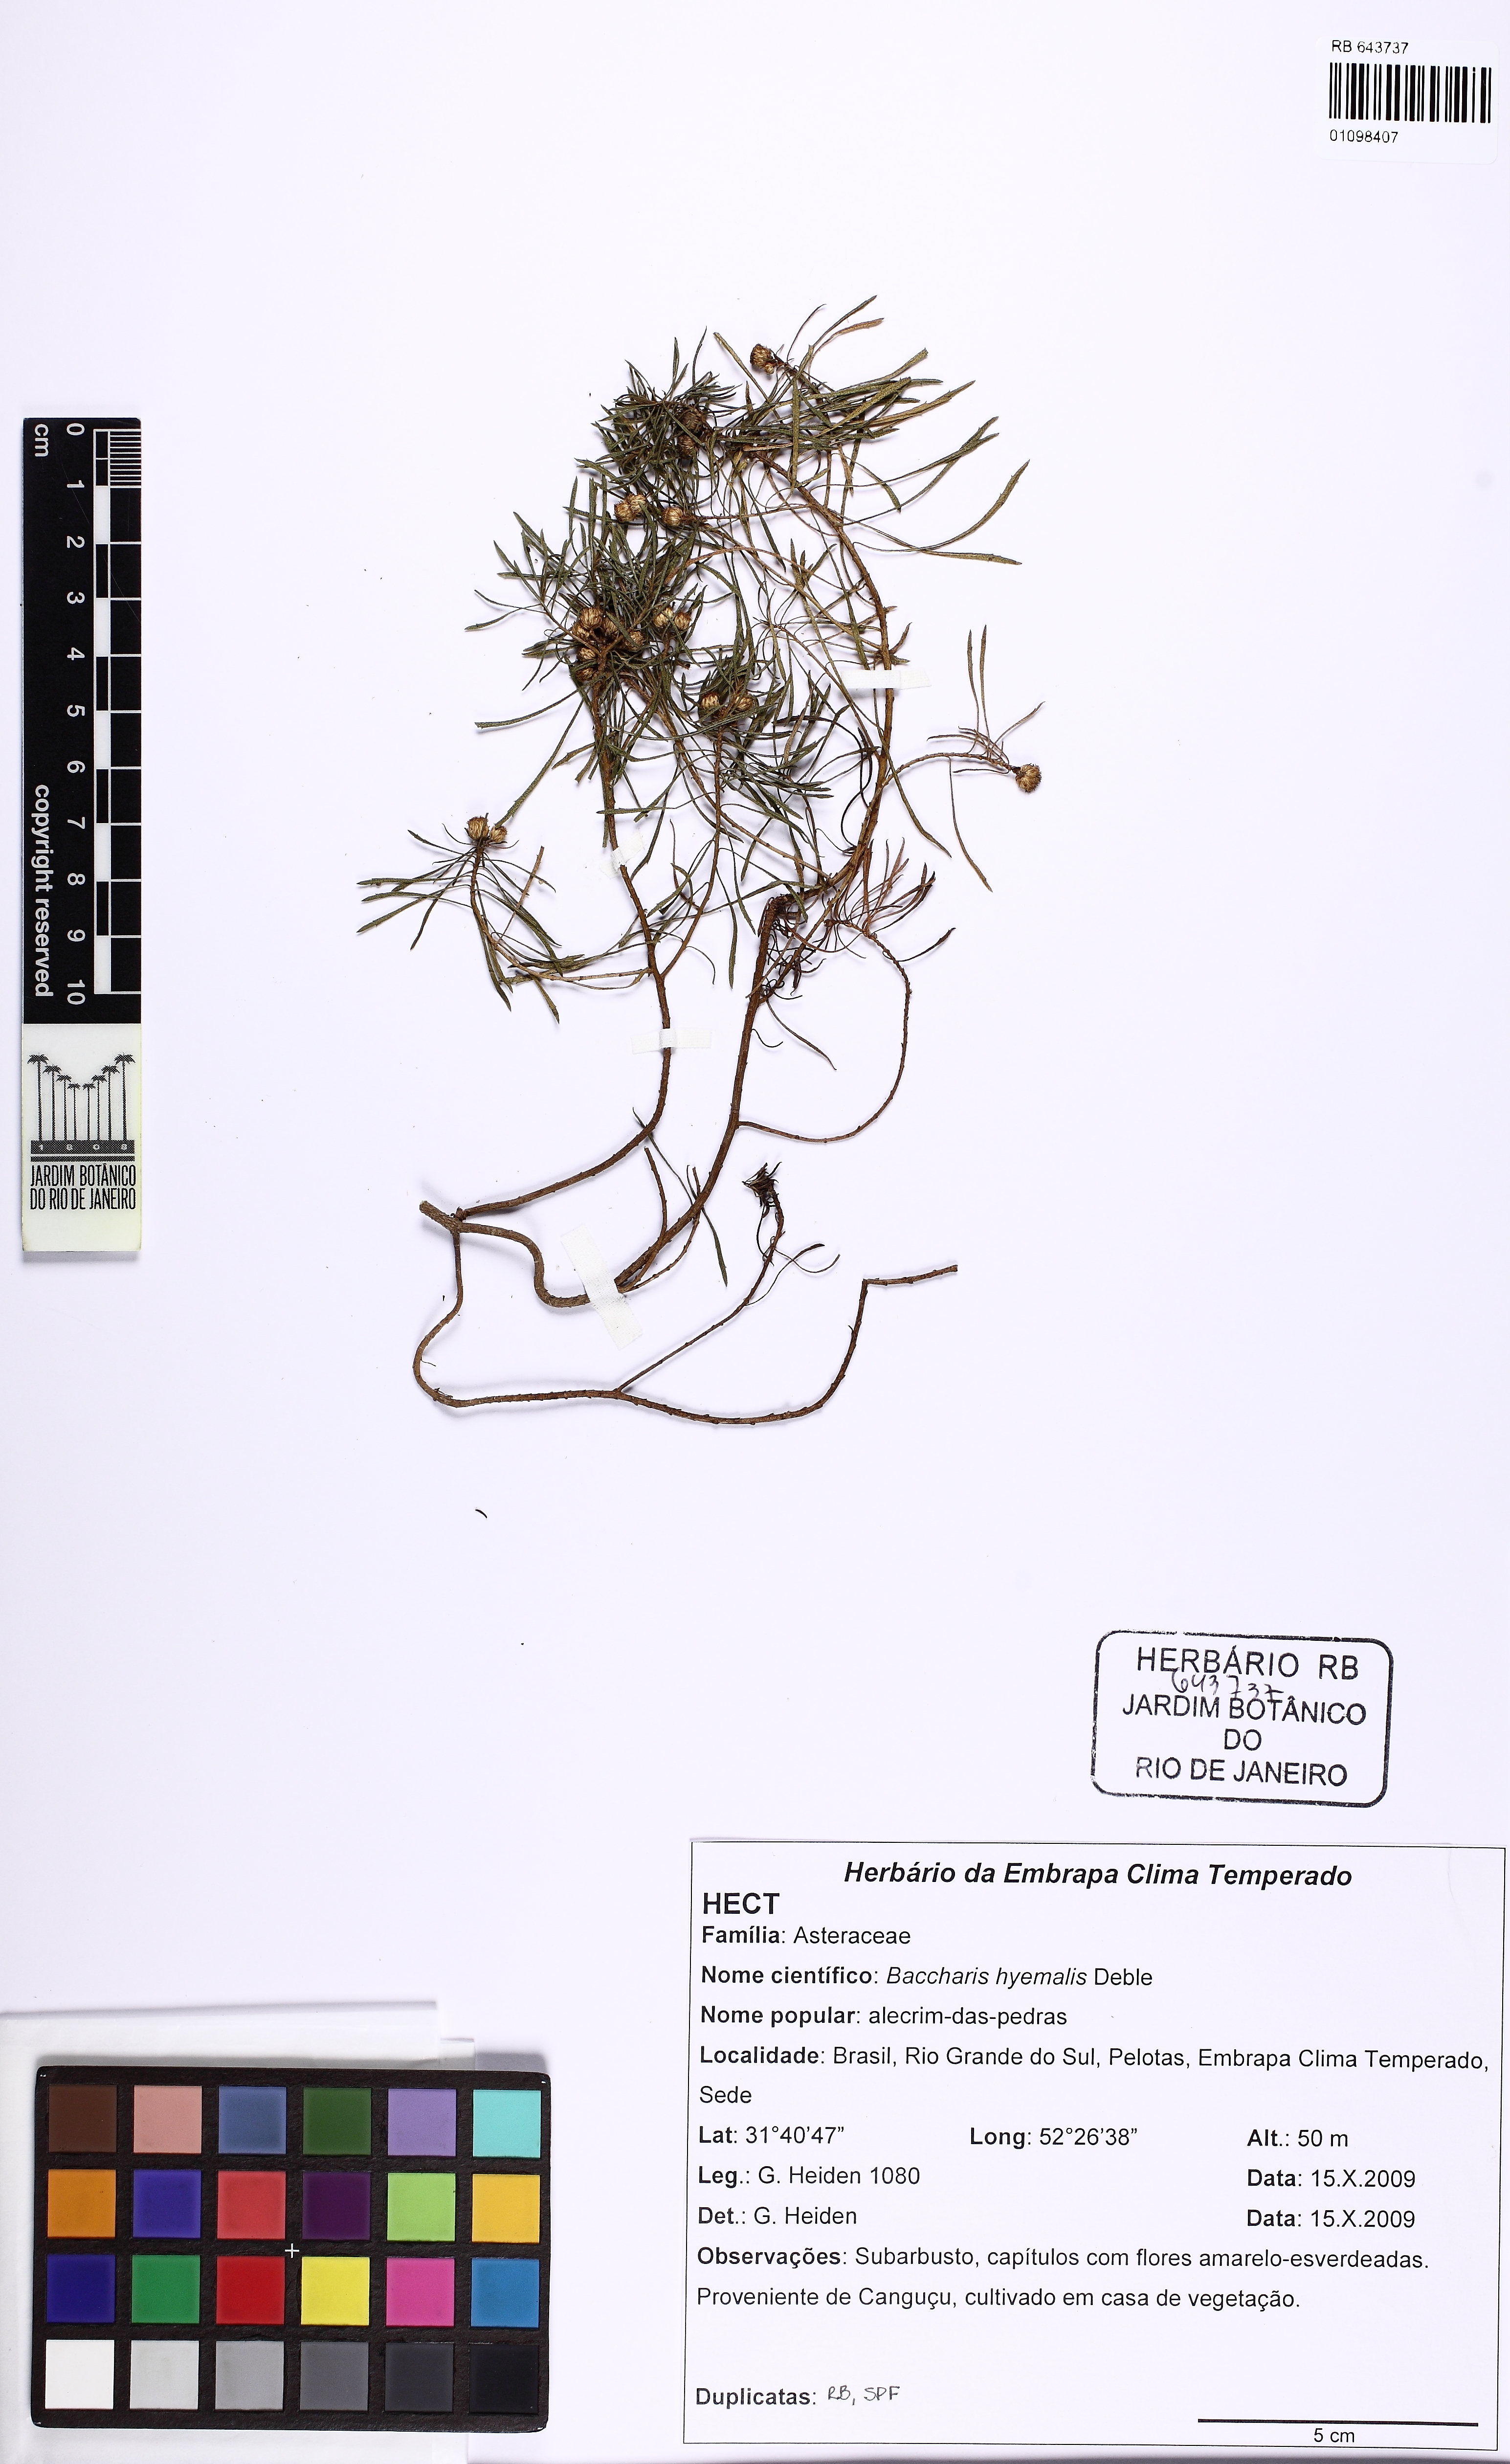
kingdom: Plantae
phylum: Tracheophyta
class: Magnoliopsida
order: Asterales
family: Asteraceae
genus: Baccharis
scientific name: Baccharis hyemalis
